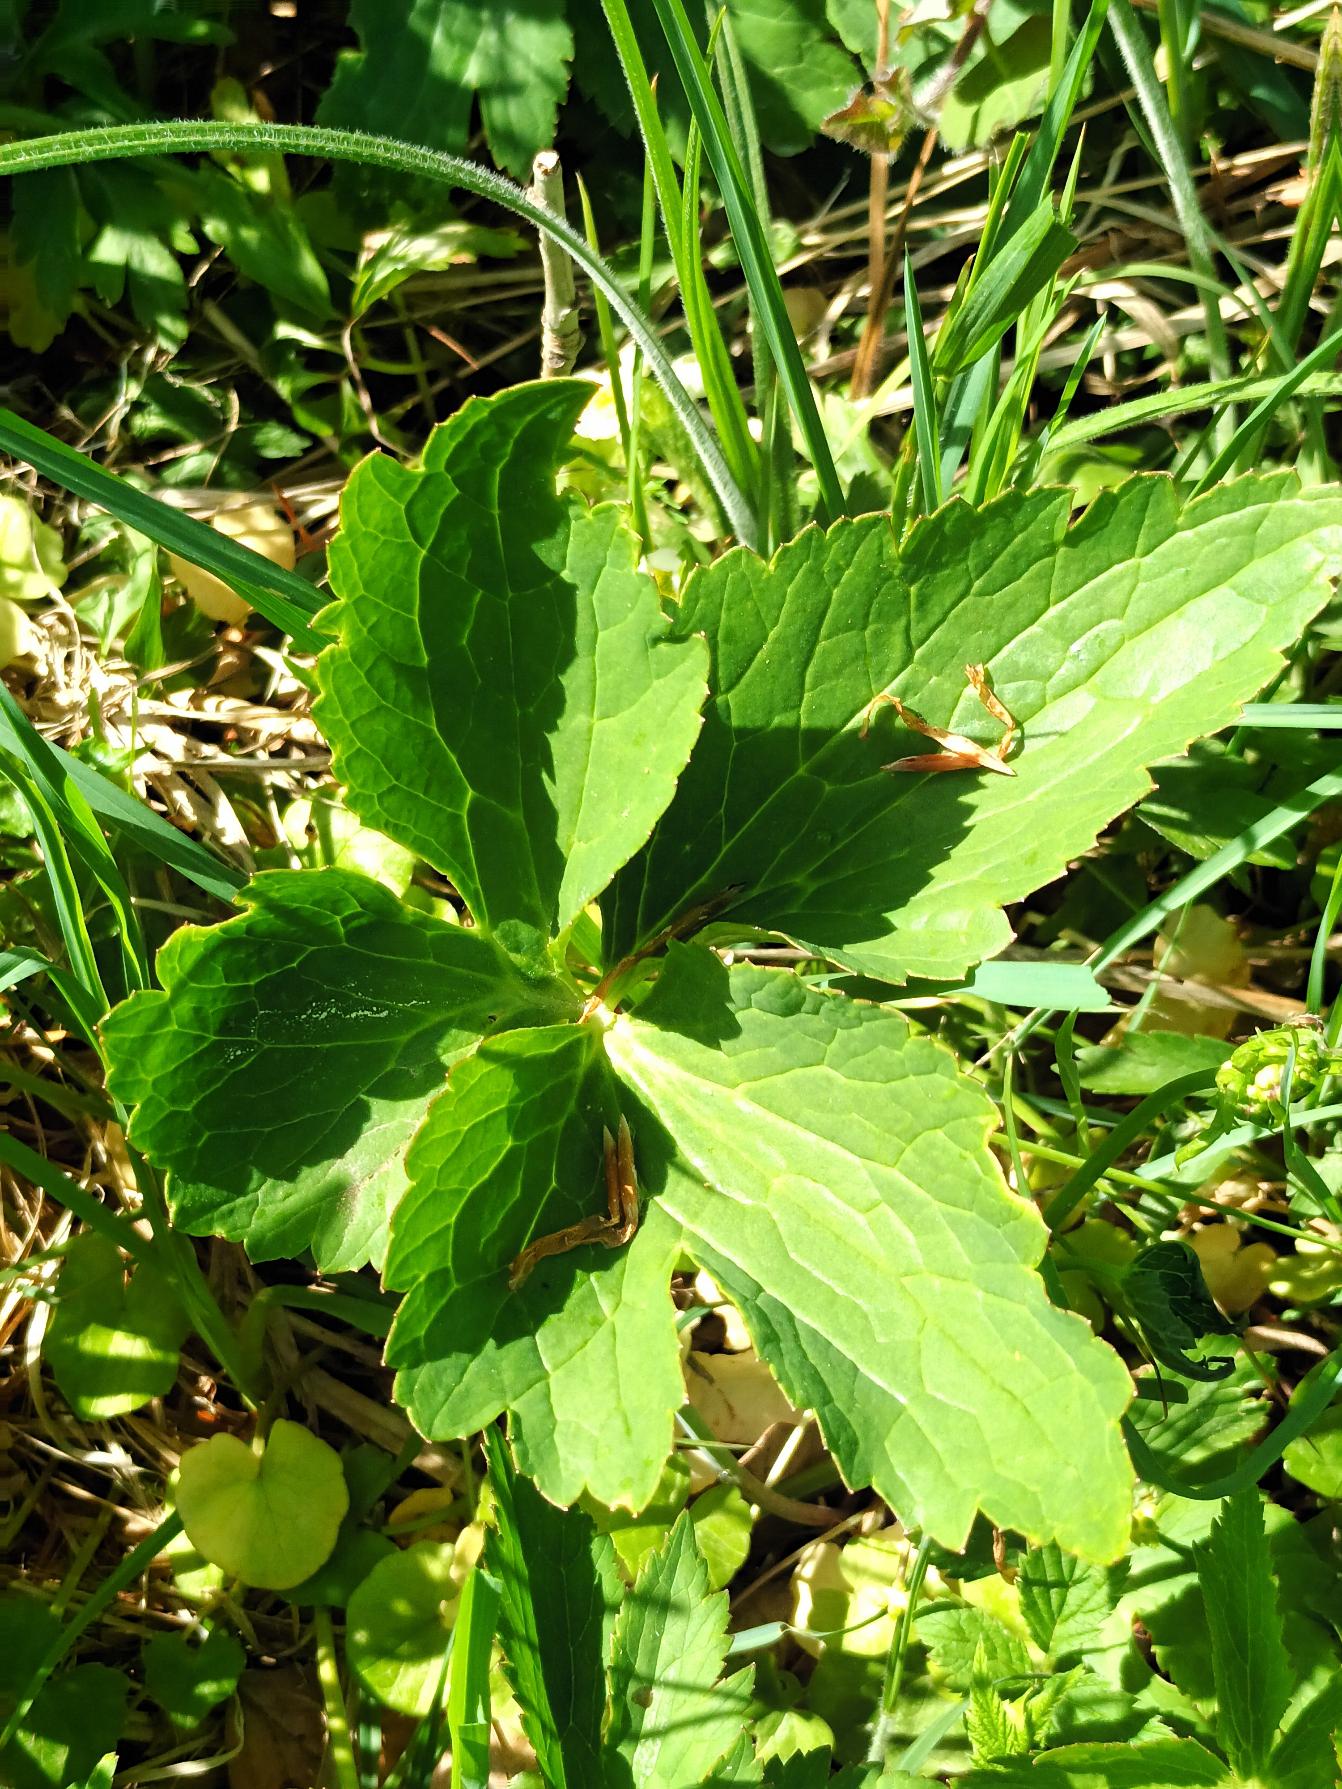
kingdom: Plantae
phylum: Tracheophyta
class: Magnoliopsida
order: Ranunculales
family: Ranunculaceae
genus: Ranunculus
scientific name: Ranunculus platanifolius
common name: Lønbladet ranunkel
